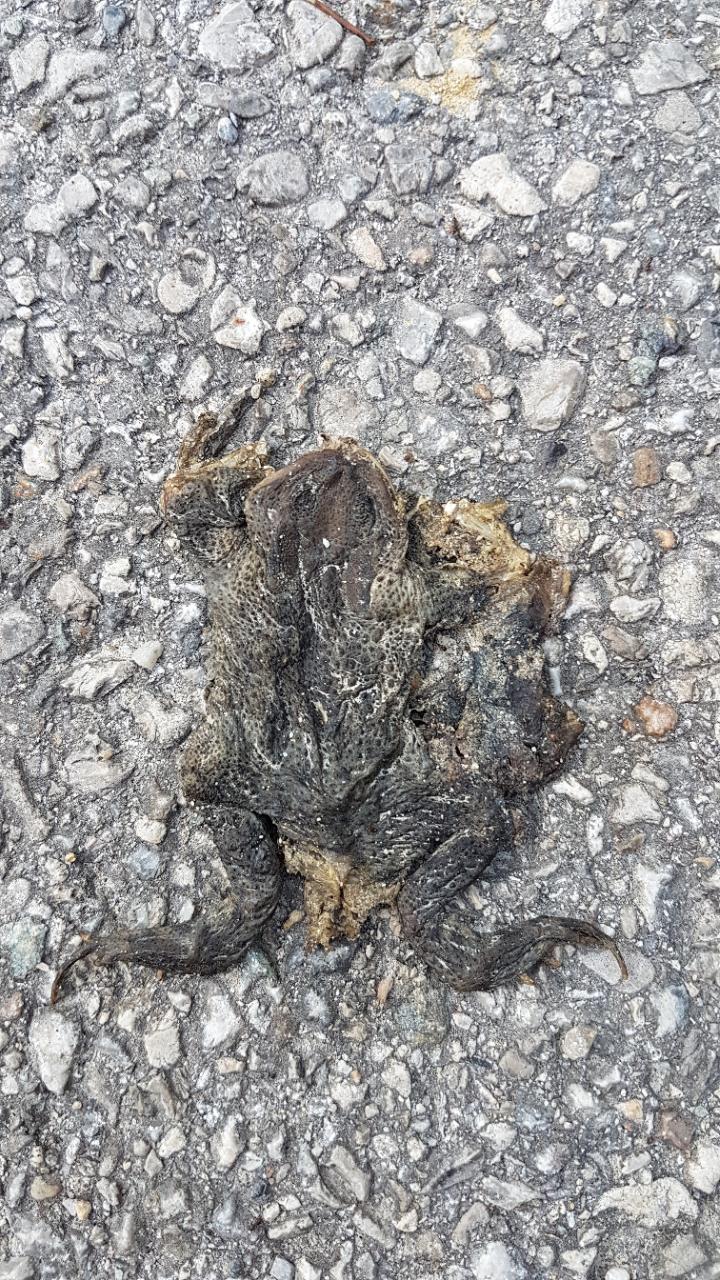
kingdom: Animalia
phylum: Chordata
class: Amphibia
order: Anura
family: Bufonidae
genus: Bufo
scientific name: Bufo bufo
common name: Common toad
